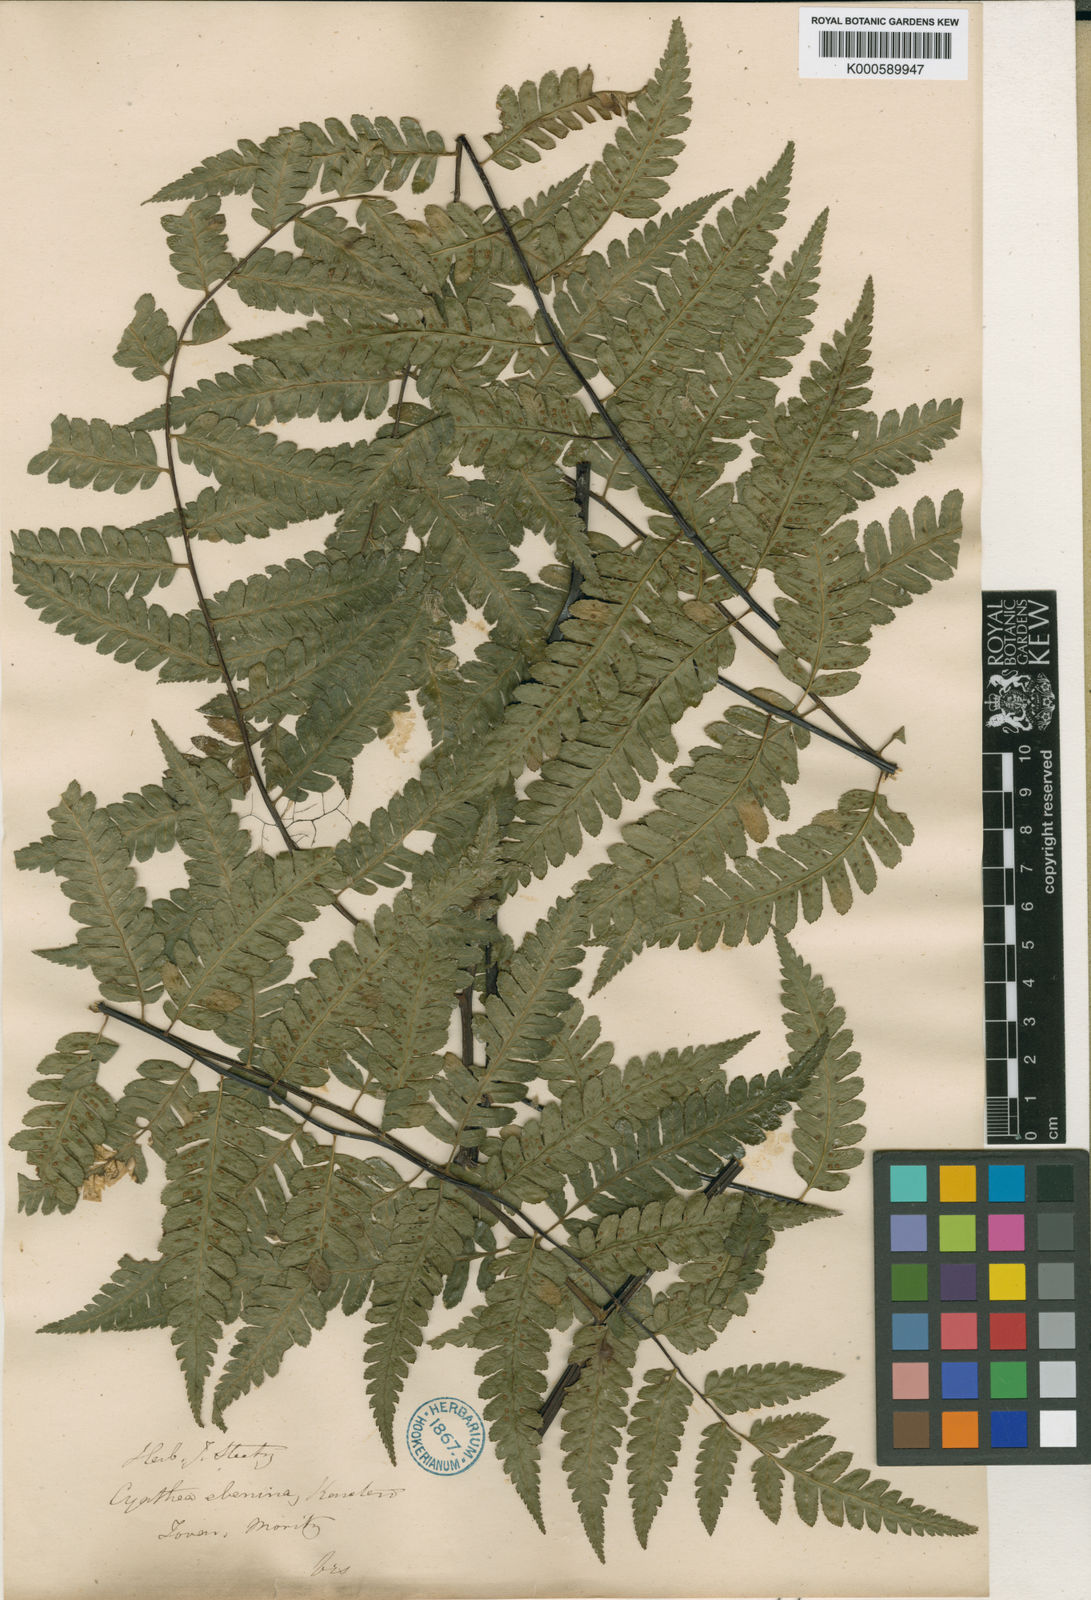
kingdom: Plantae
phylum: Tracheophyta
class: Polypodiopsida
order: Cyatheales
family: Cyatheaceae
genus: Cyathea
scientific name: Cyathea ebenina
